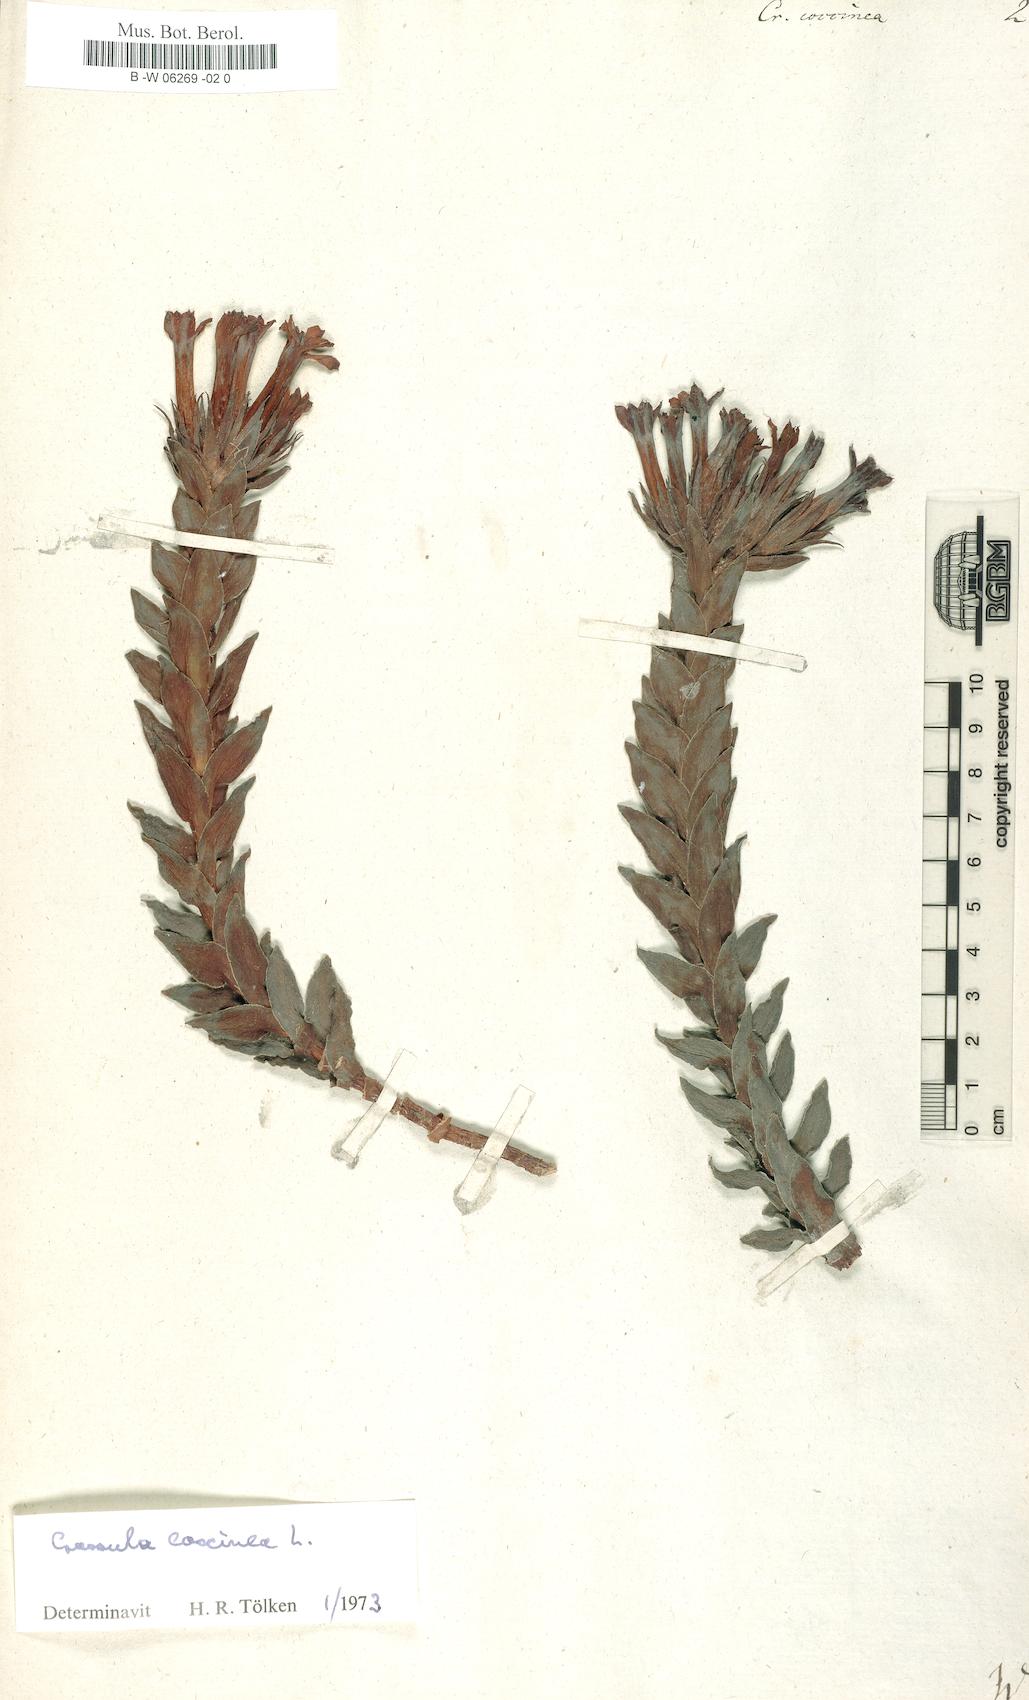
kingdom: Plantae
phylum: Tracheophyta
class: Magnoliopsida
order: Saxifragales
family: Crassulaceae
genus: Crassula
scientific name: Crassula coccinea
